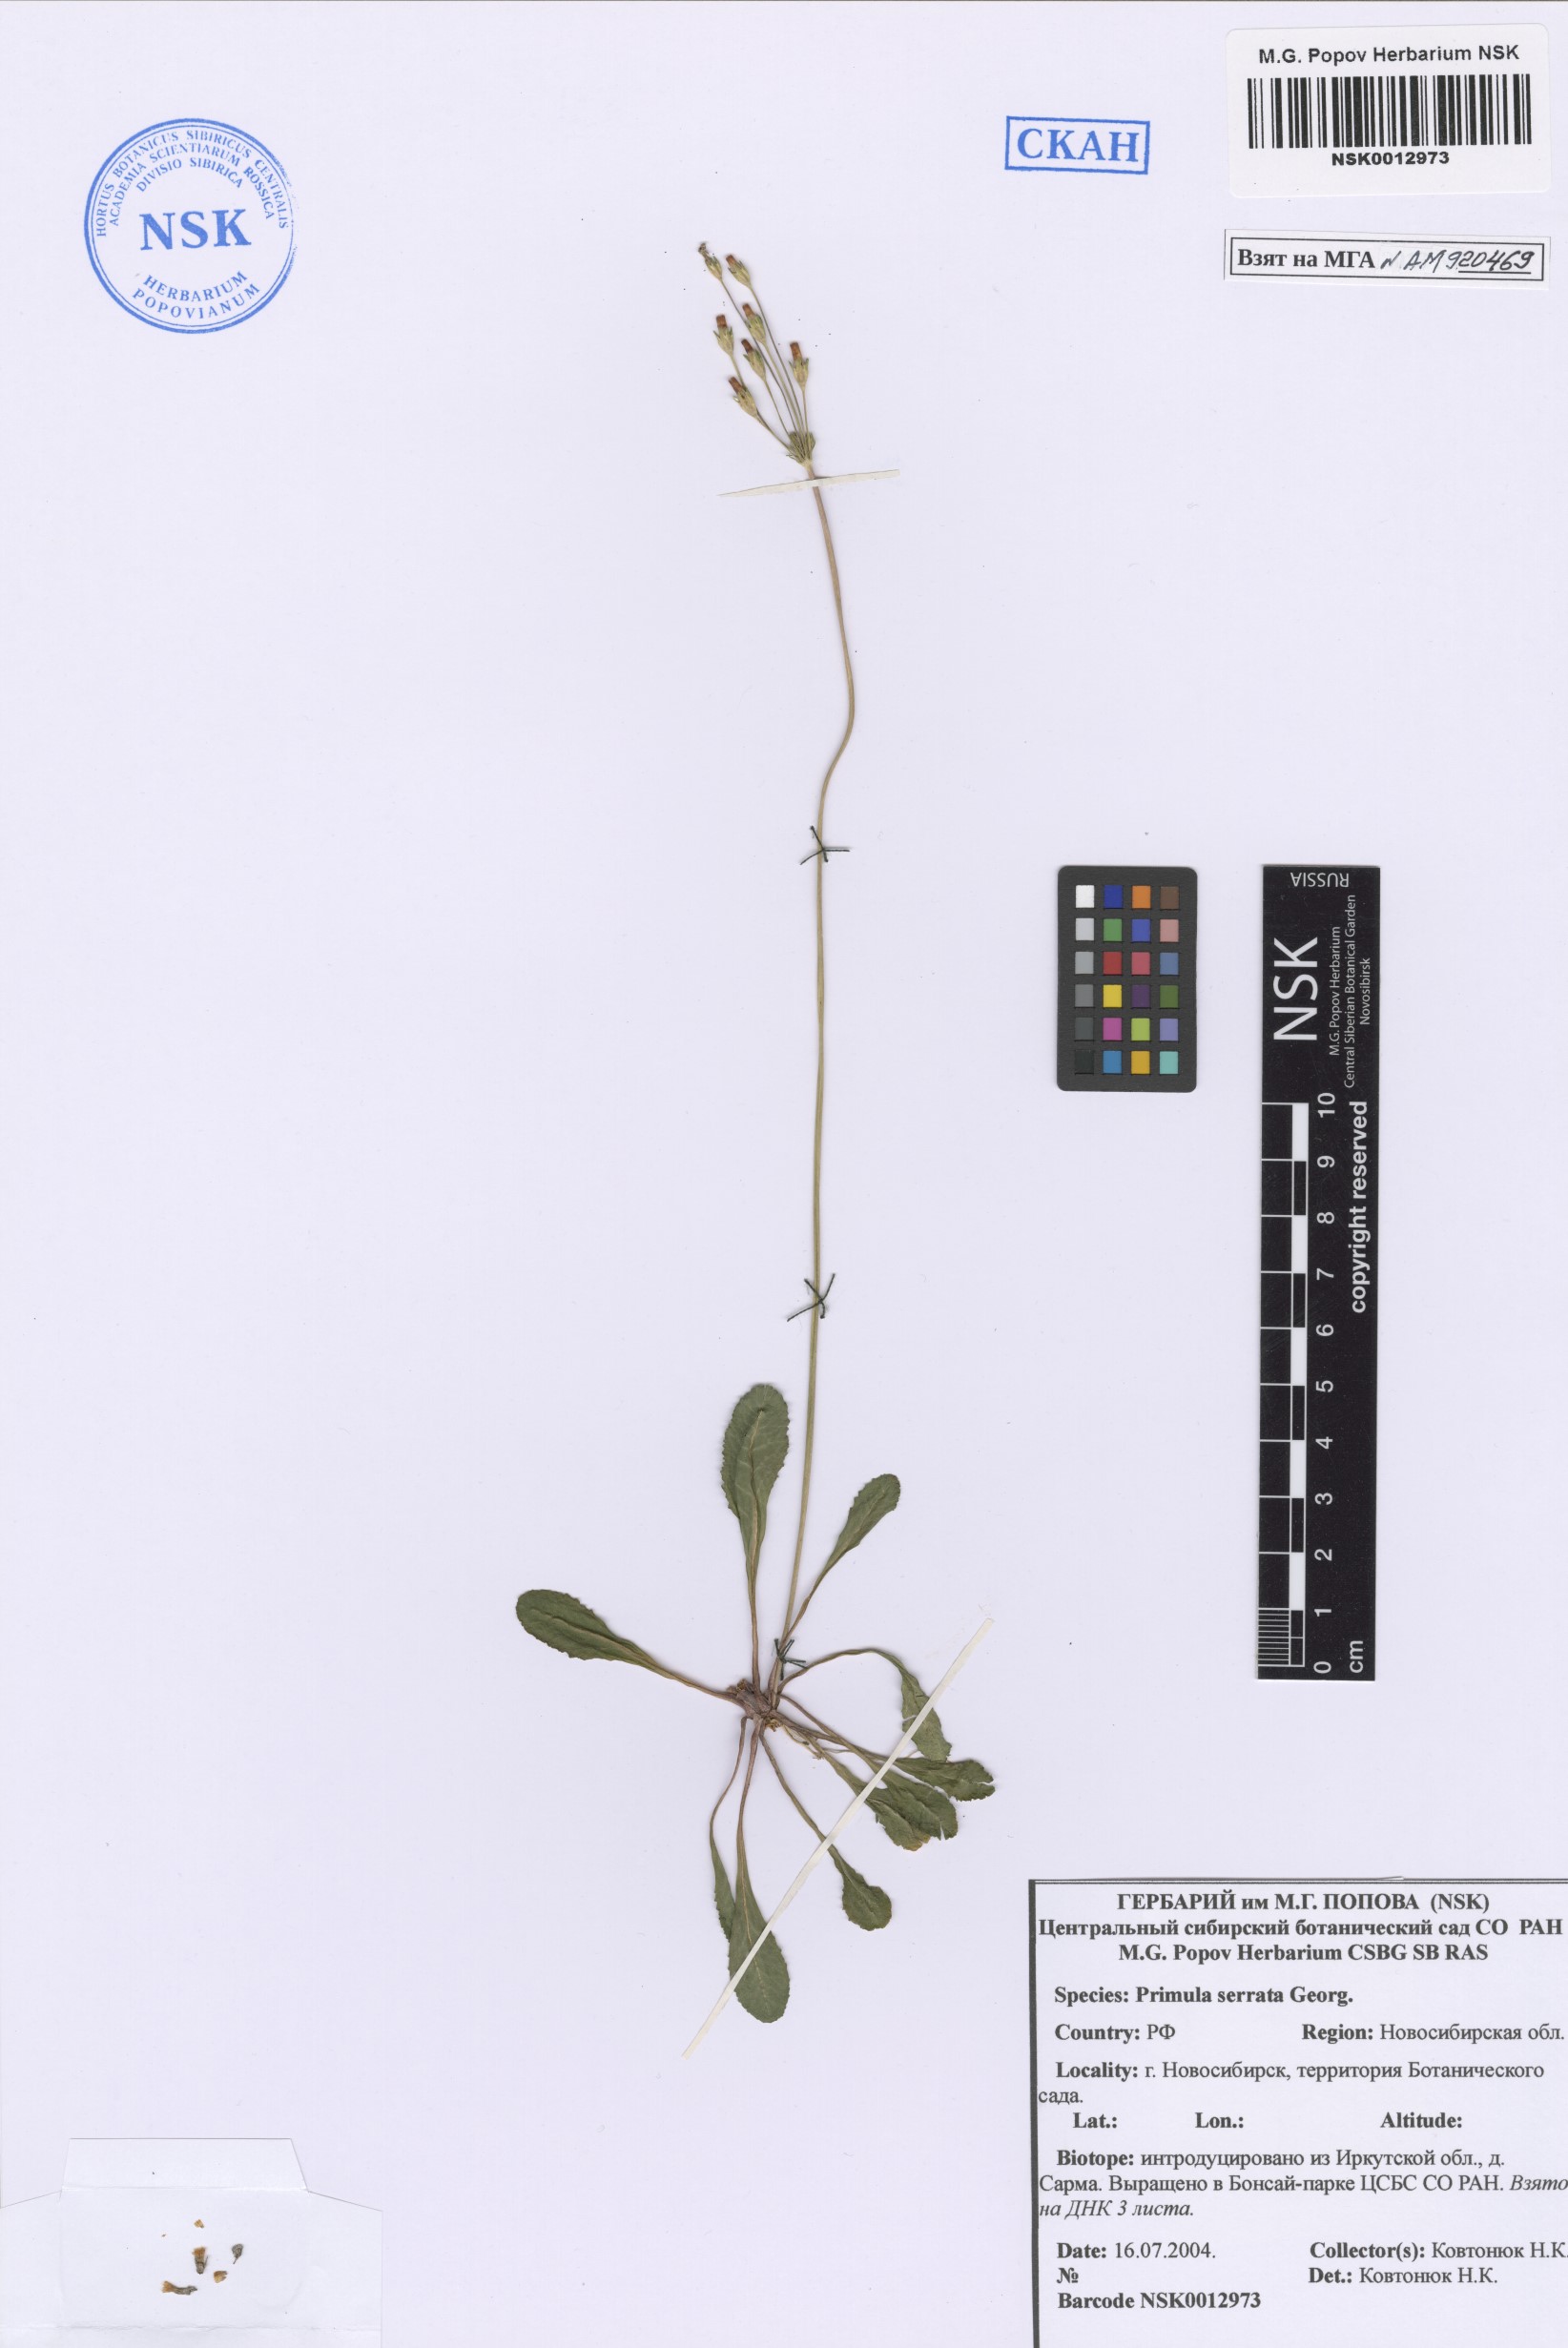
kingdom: Plantae
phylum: Tracheophyta
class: Magnoliopsida
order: Ericales
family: Primulaceae
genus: Primula
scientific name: Primula serrata
